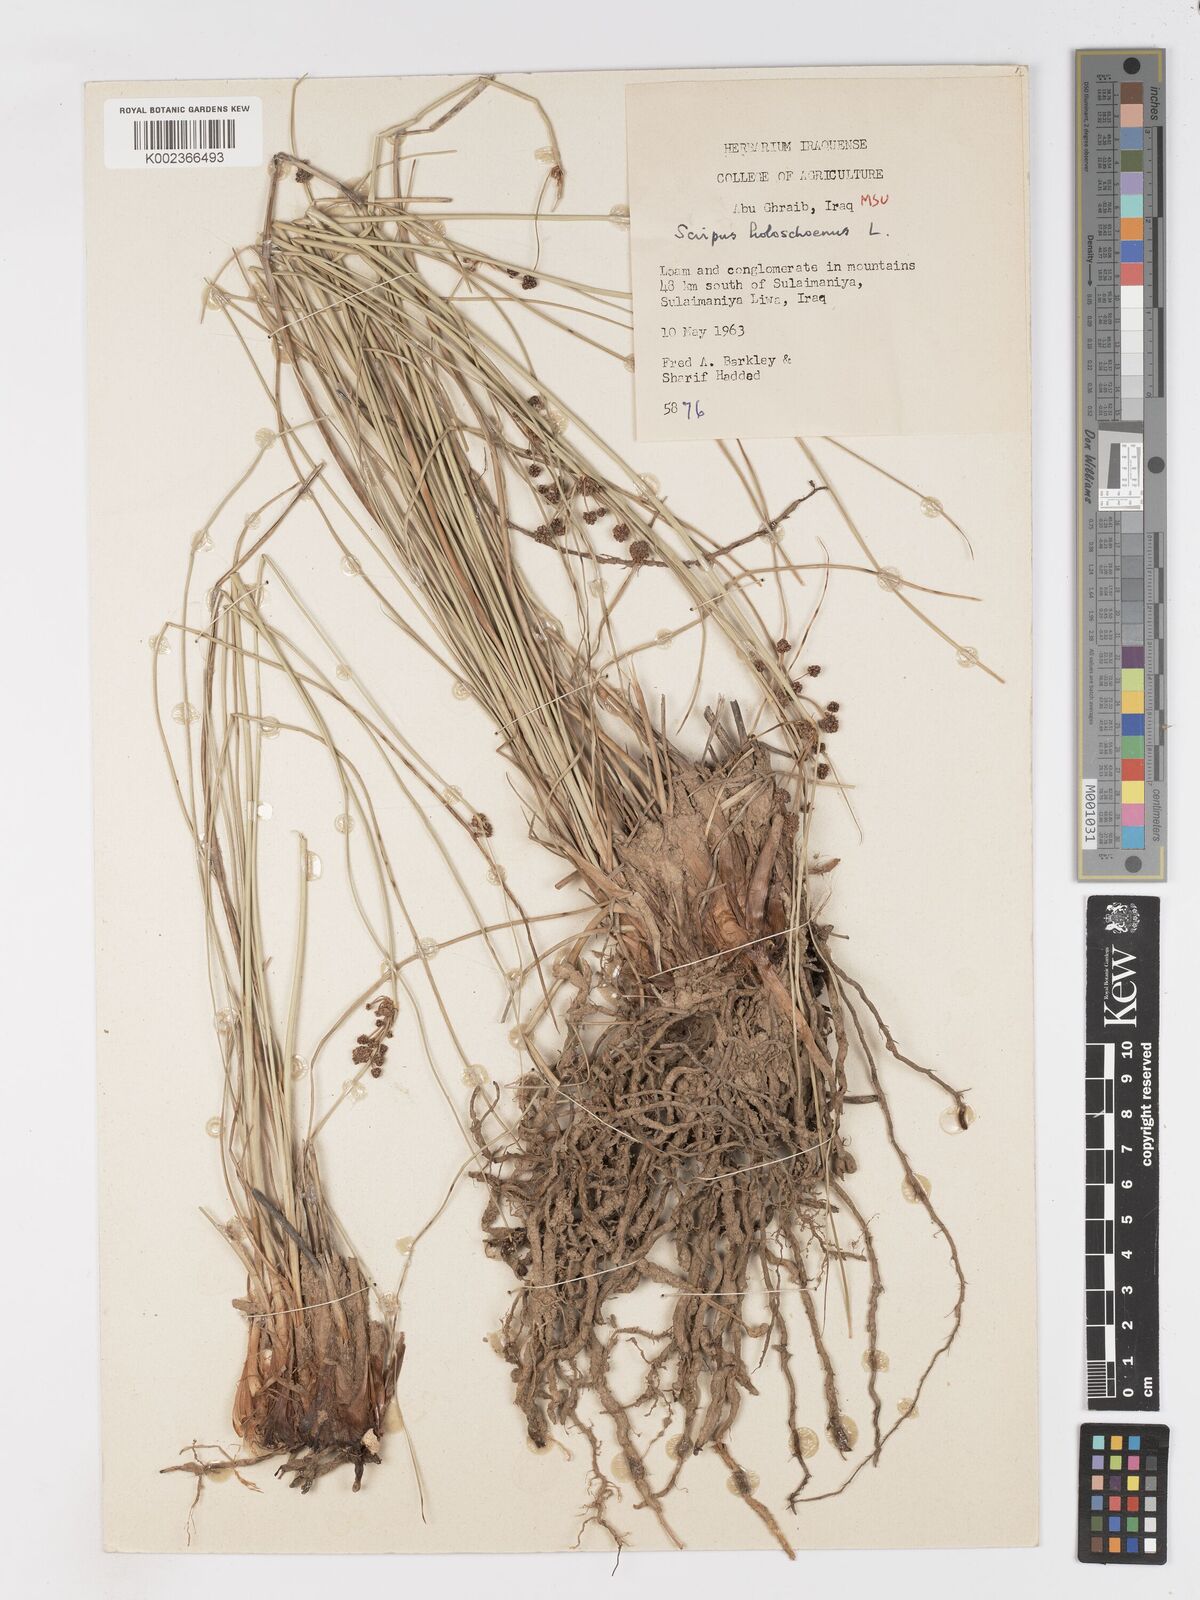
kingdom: Plantae
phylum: Tracheophyta
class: Liliopsida
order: Poales
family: Cyperaceae
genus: Scirpoides
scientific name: Scirpoides holoschoenus
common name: Round-headed club-rush
